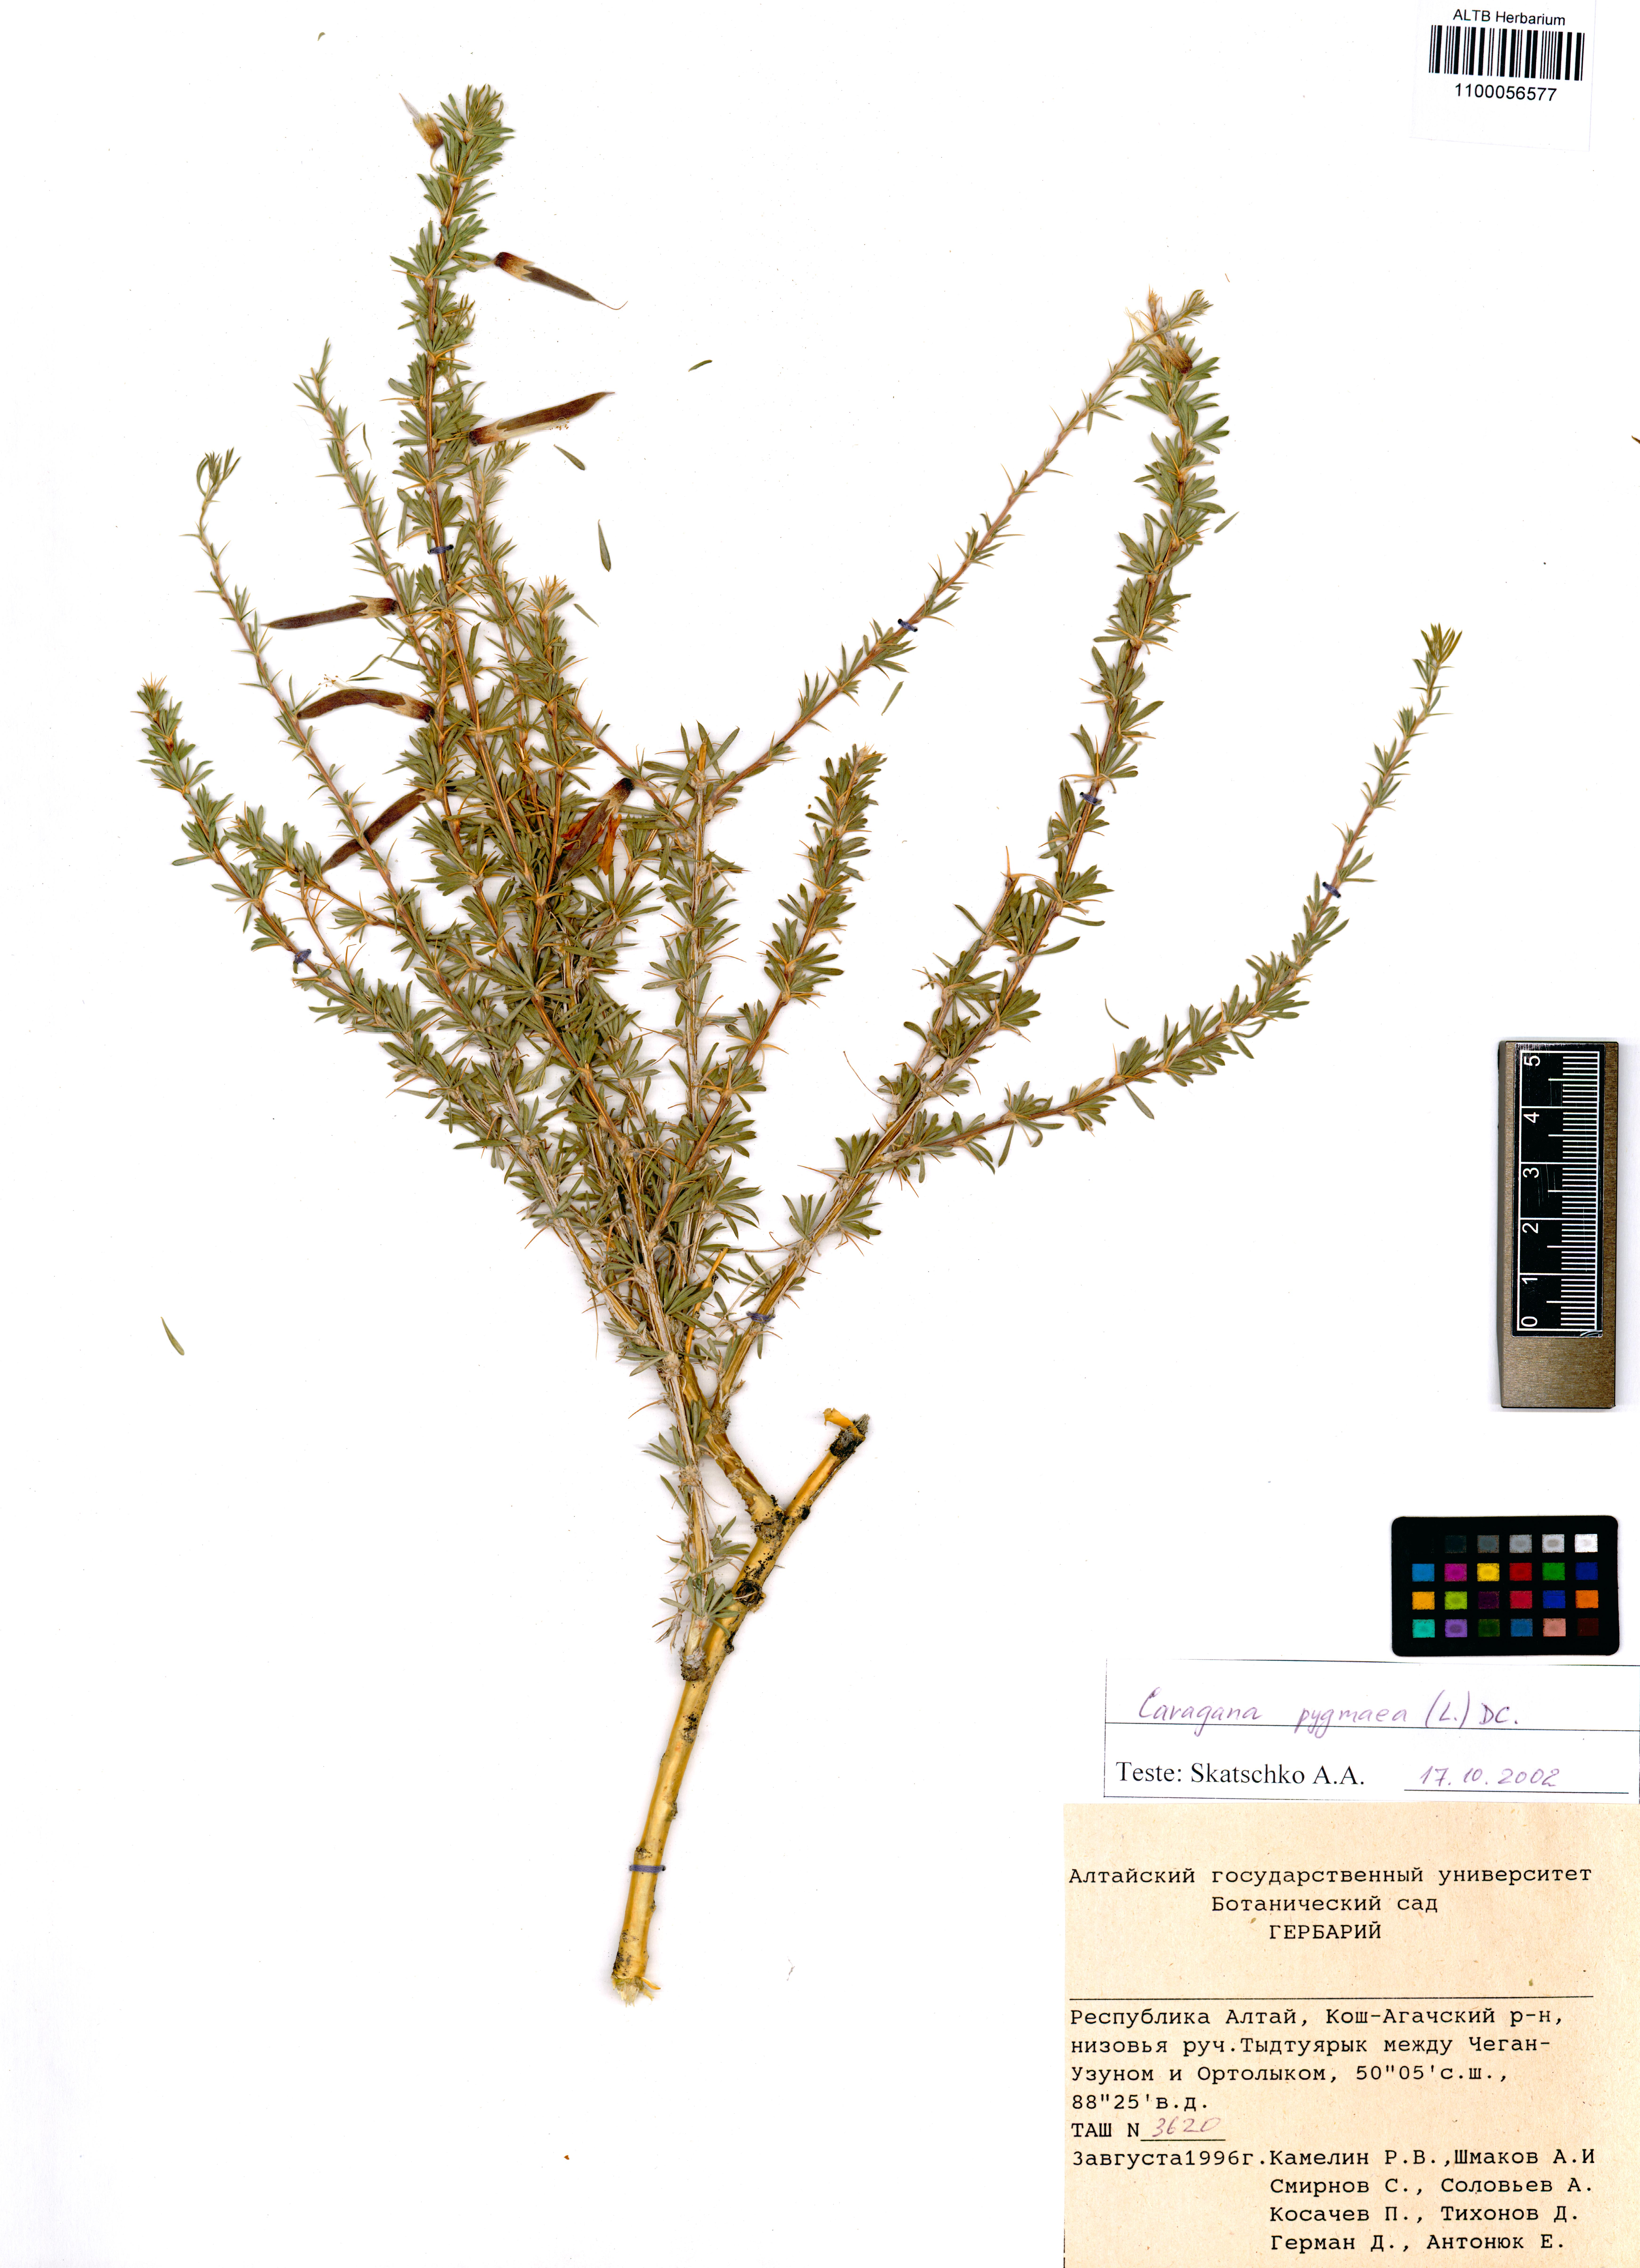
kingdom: Plantae
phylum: Tracheophyta
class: Magnoliopsida
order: Fabales
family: Fabaceae
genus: Caragana
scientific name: Caragana pygmaea
